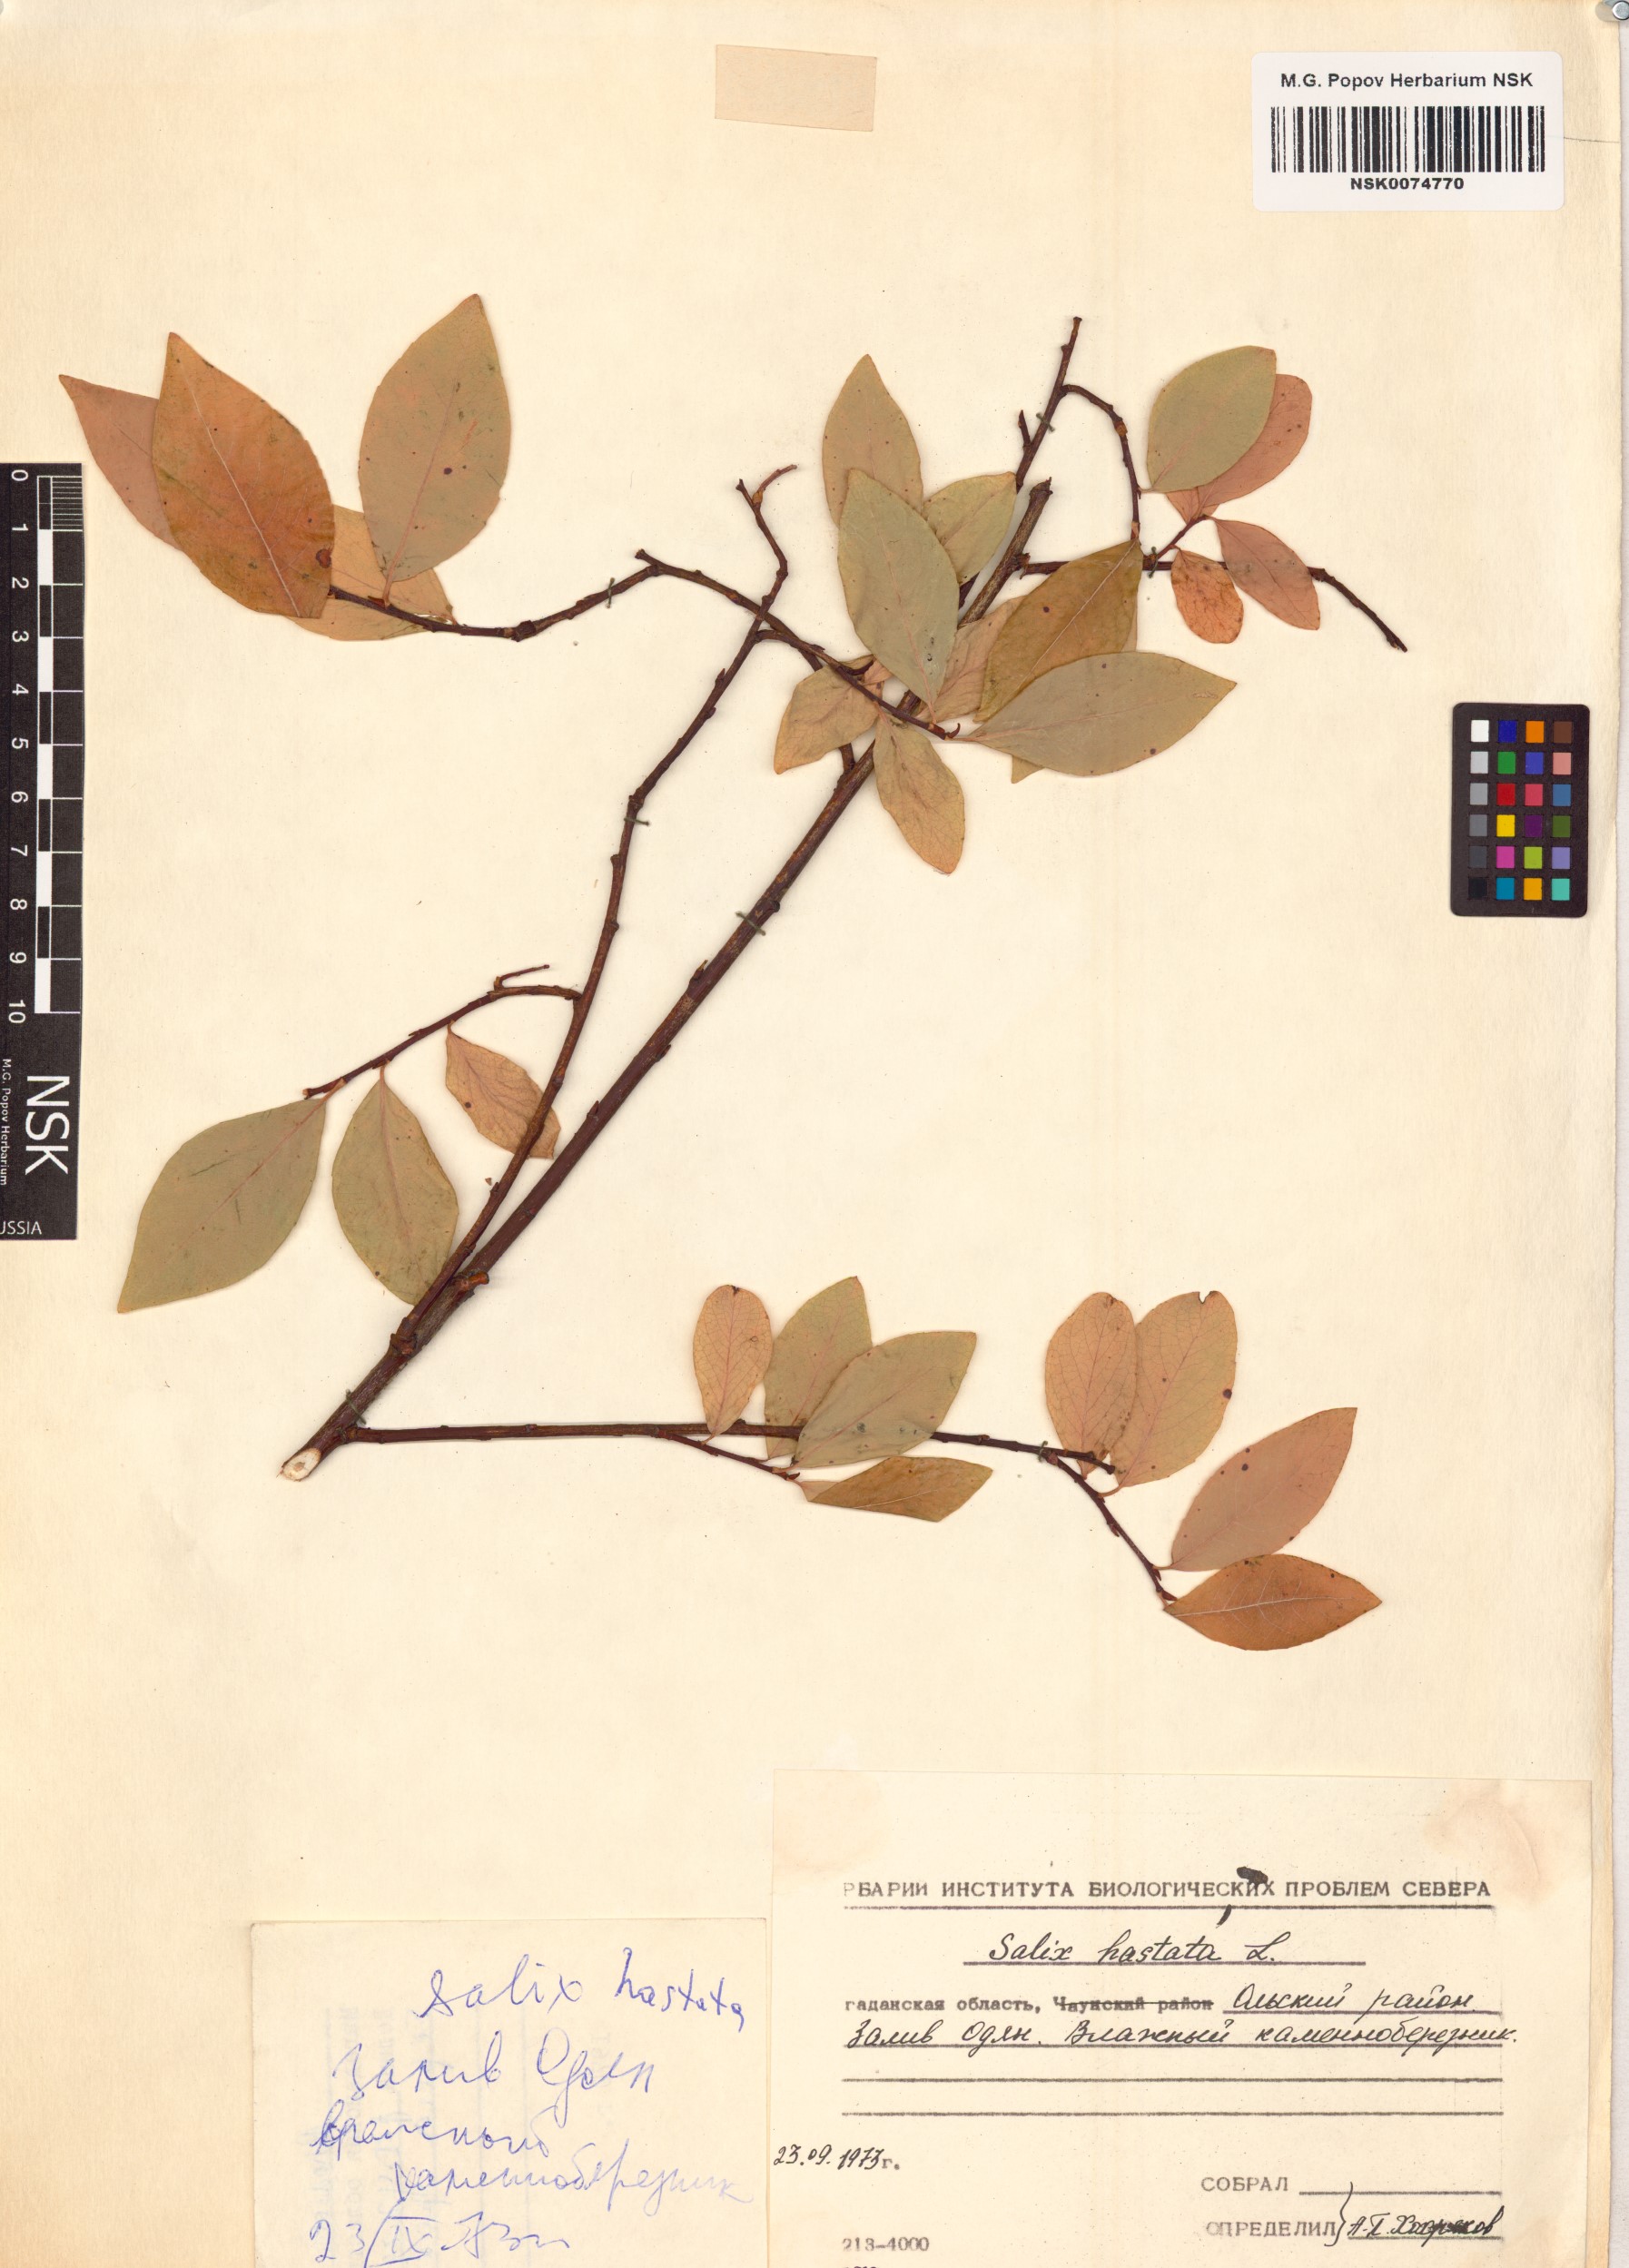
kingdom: Plantae
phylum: Tracheophyta
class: Magnoliopsida
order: Malpighiales
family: Salicaceae
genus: Salix
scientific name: Salix hastata
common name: Halberd willow
